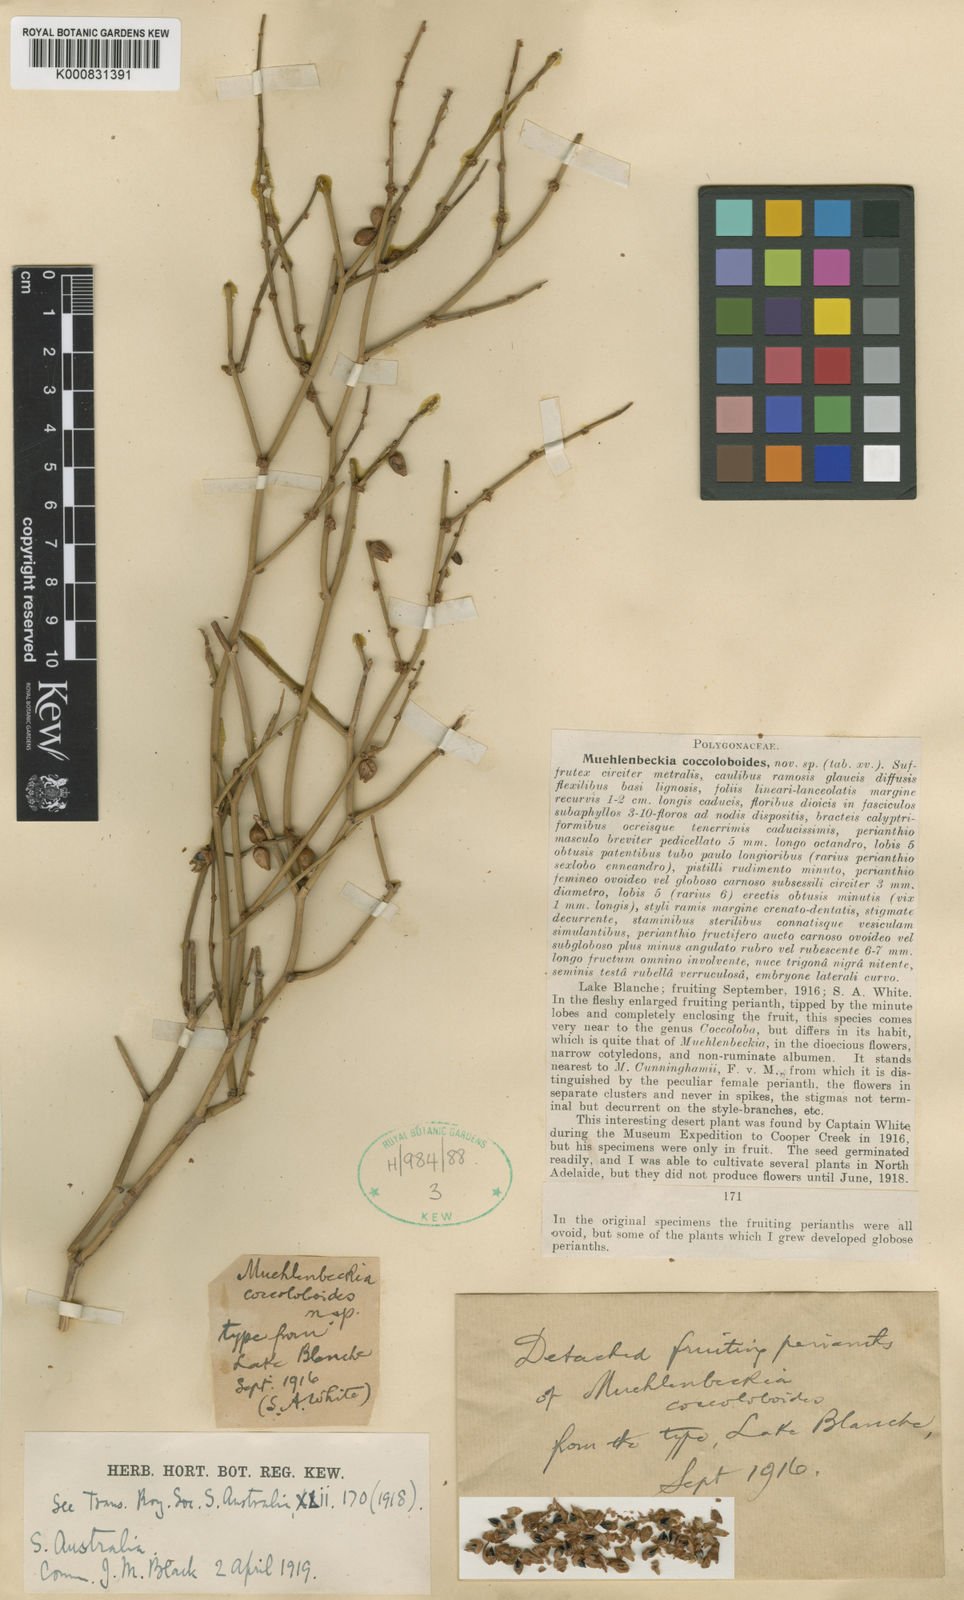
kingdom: Plantae
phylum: Tracheophyta
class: Magnoliopsida
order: Caryophyllales
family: Polygonaceae
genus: Duma
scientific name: Duma coccoloboides
